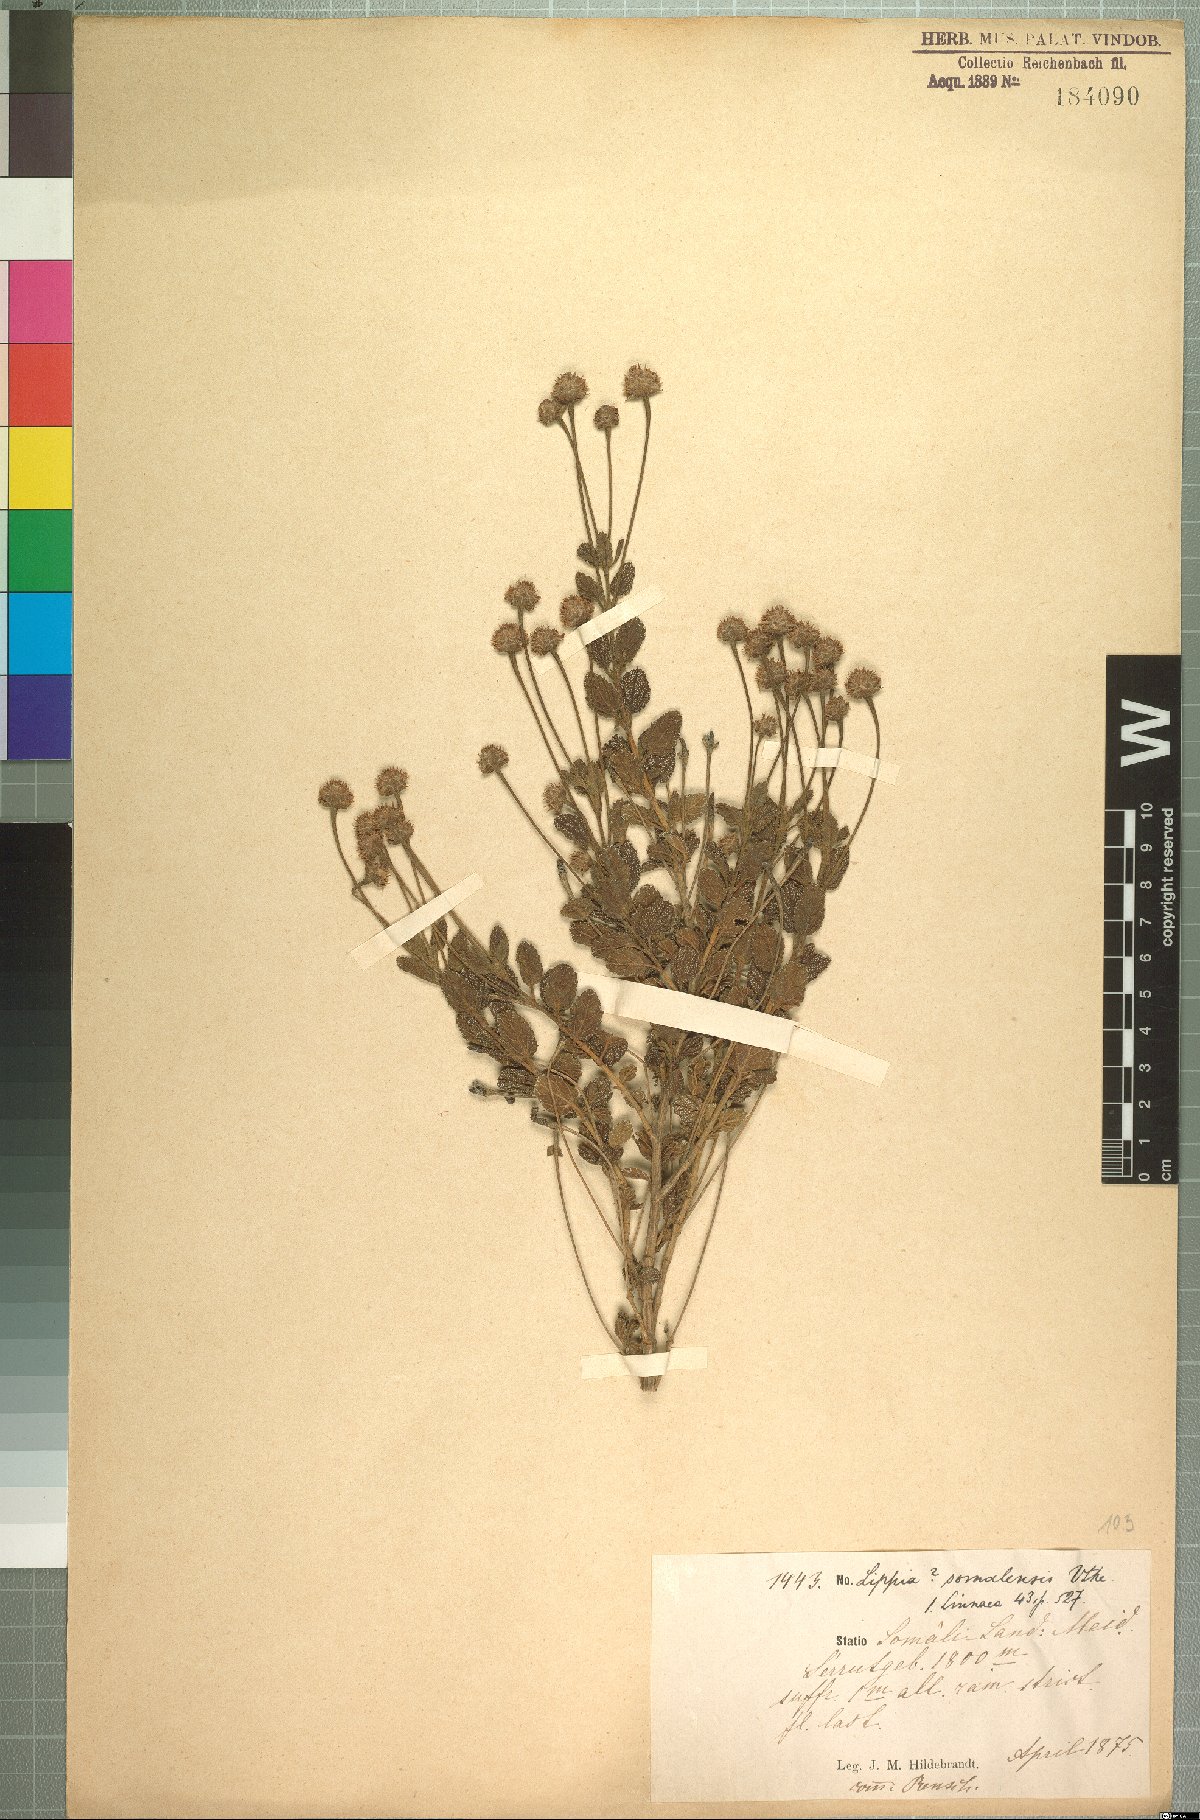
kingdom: Plantae
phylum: Tracheophyta
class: Magnoliopsida
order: Lamiales
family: Verbenaceae
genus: Lippia
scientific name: Lippia somalensis
